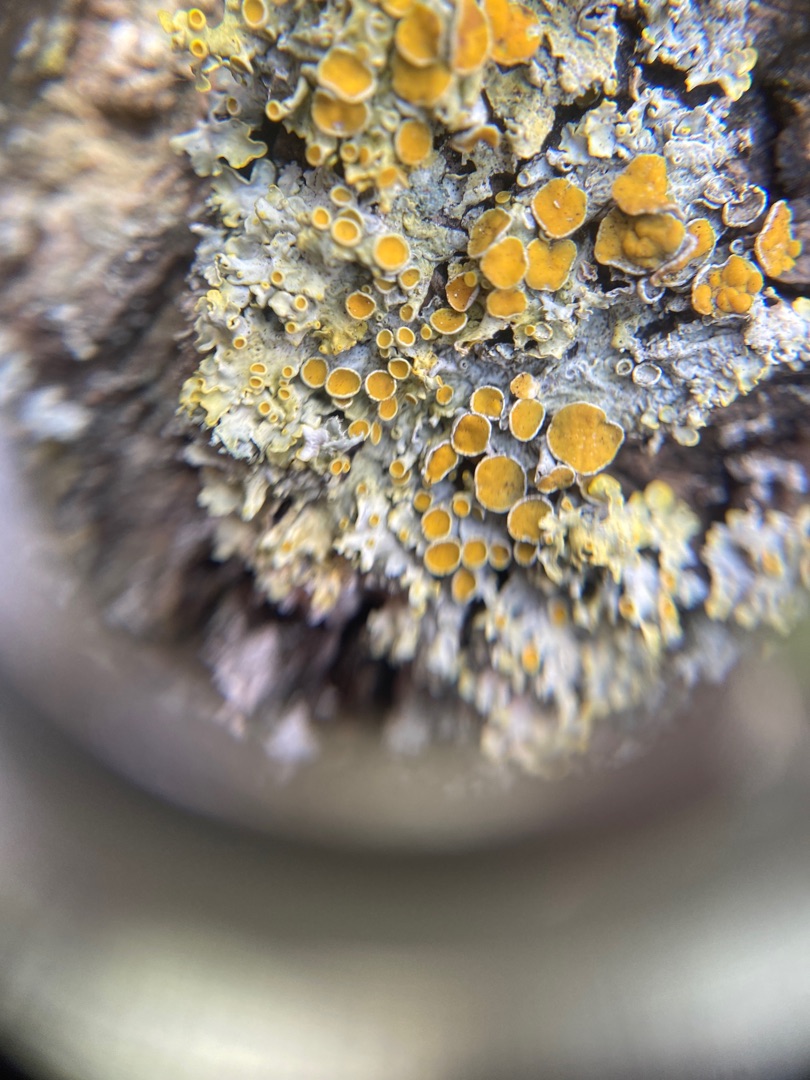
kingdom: Fungi
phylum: Ascomycota
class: Lecanoromycetes
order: Teloschistales
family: Teloschistaceae
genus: Xanthoria
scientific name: Xanthoria parietina
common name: Almindelig væggelav
